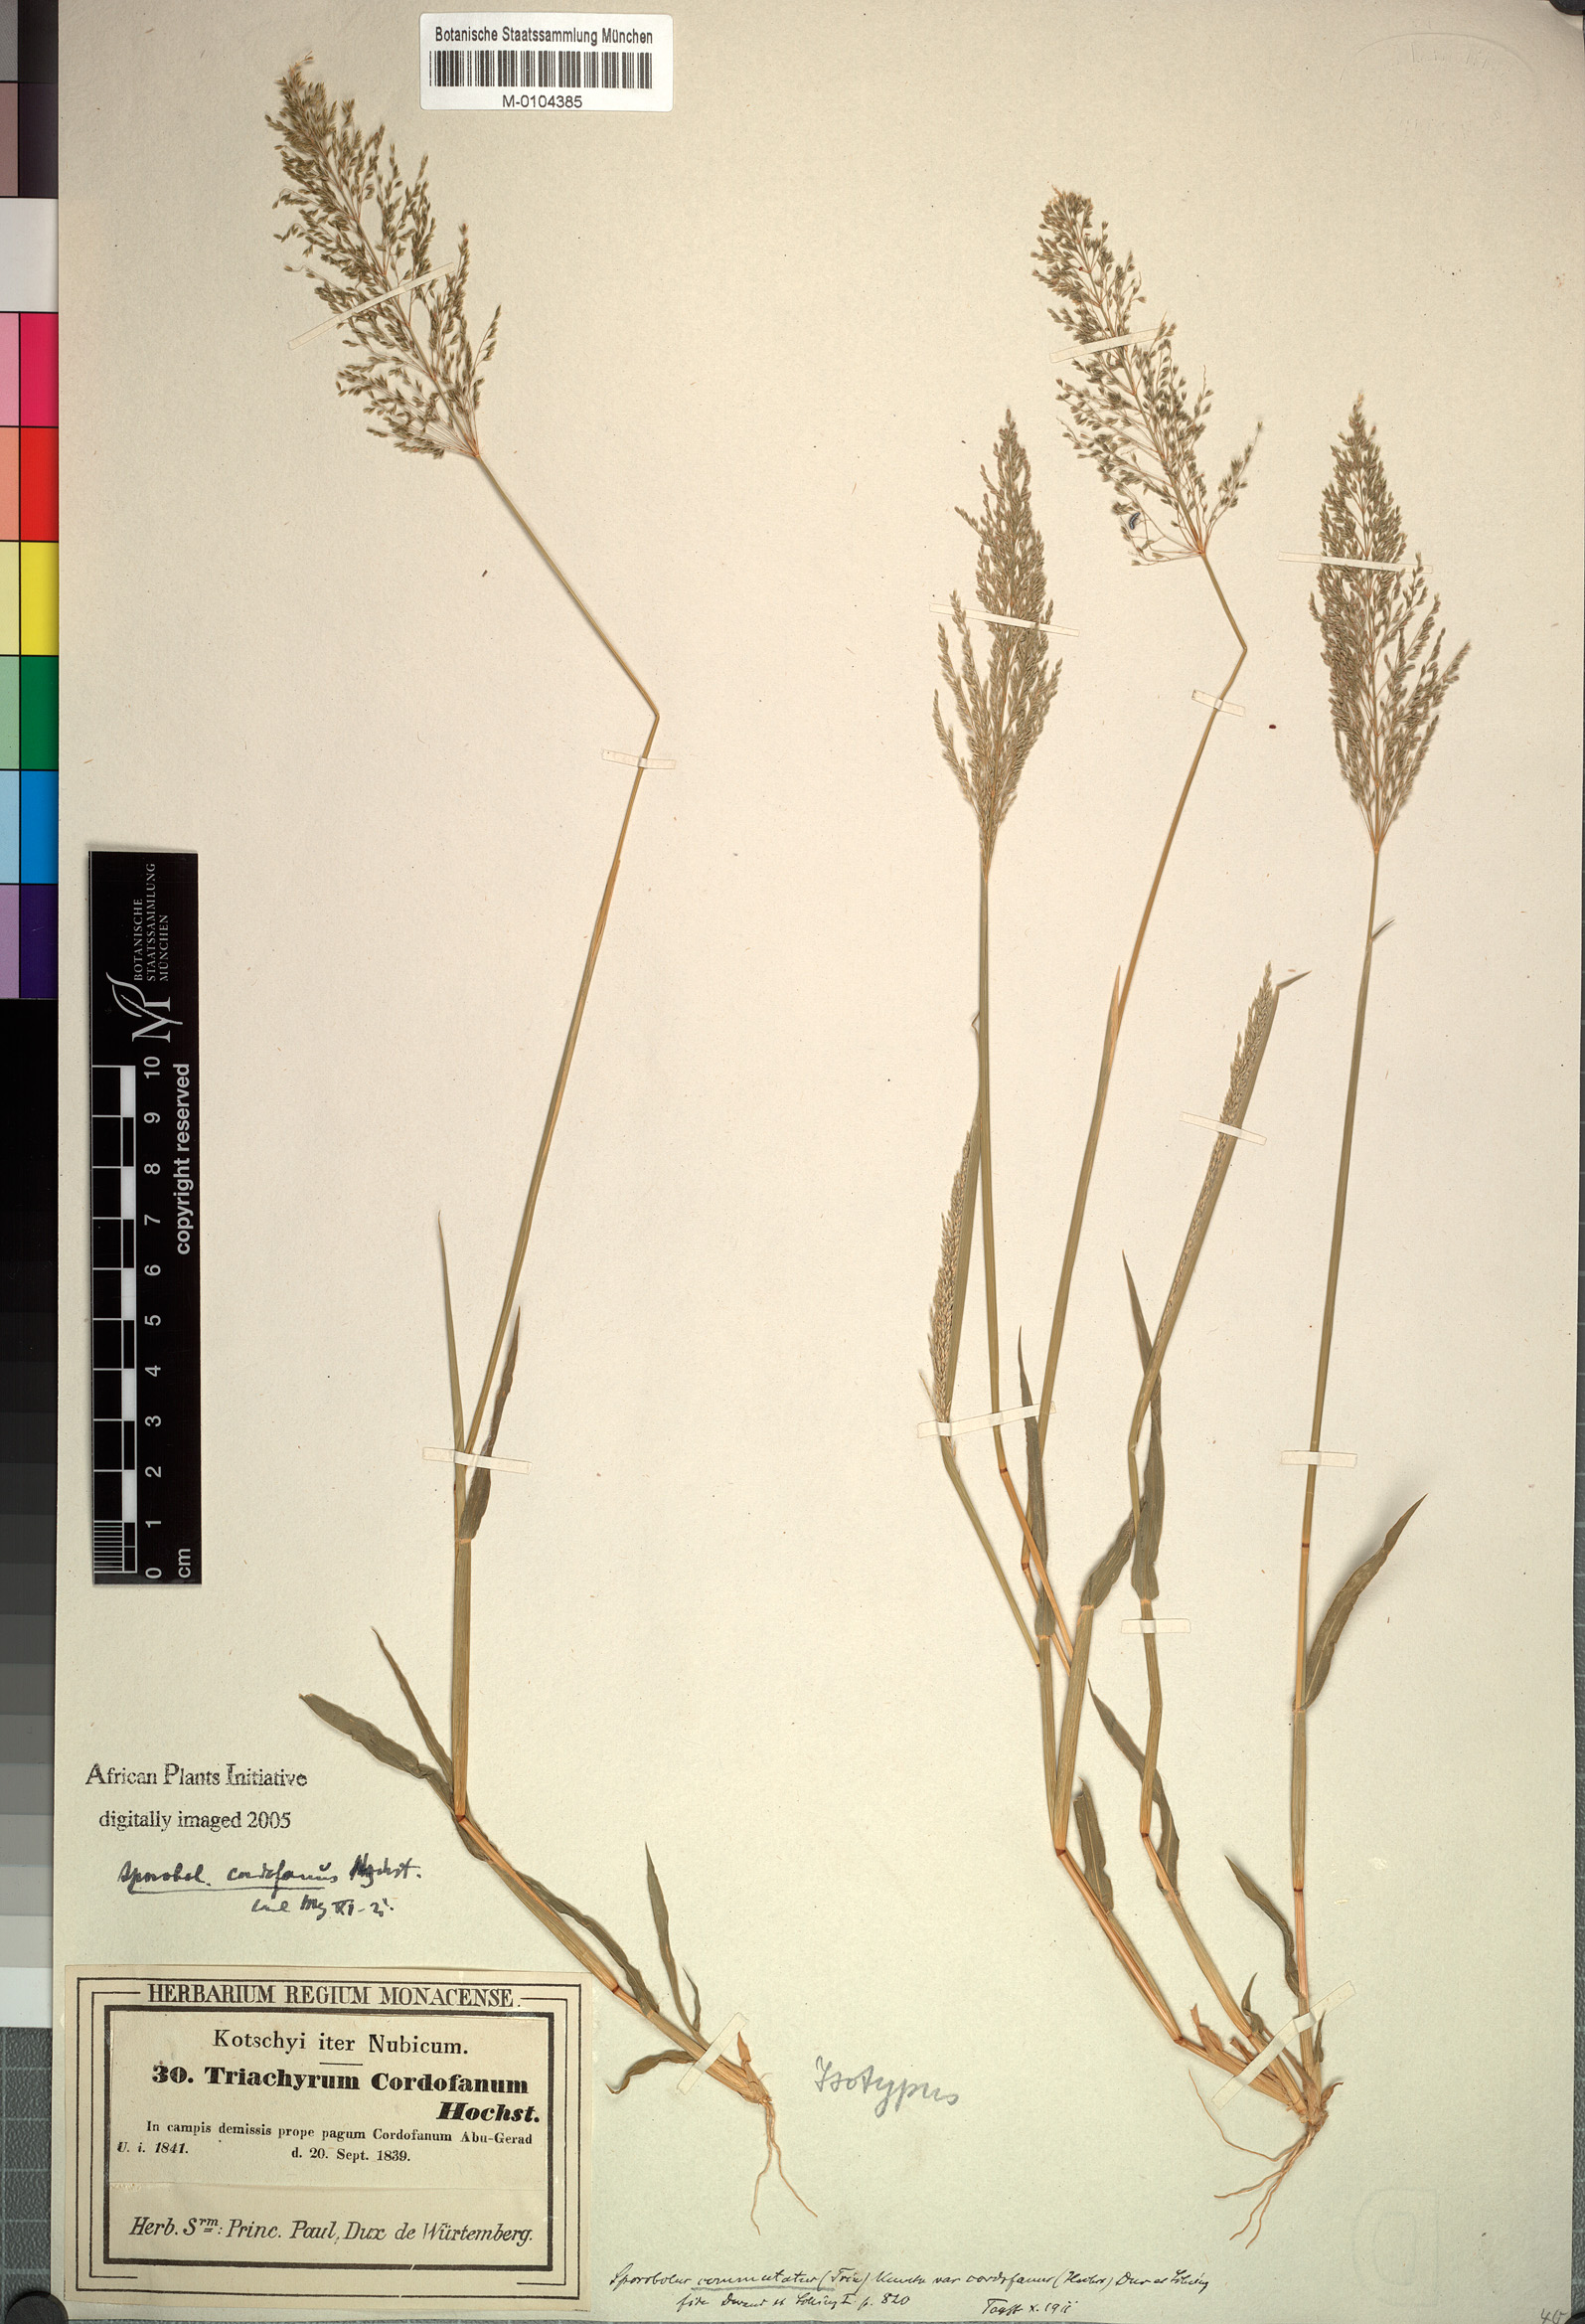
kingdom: Plantae
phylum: Tracheophyta
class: Liliopsida
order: Poales
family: Poaceae
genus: Sporobolus
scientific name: Sporobolus cordofanus
